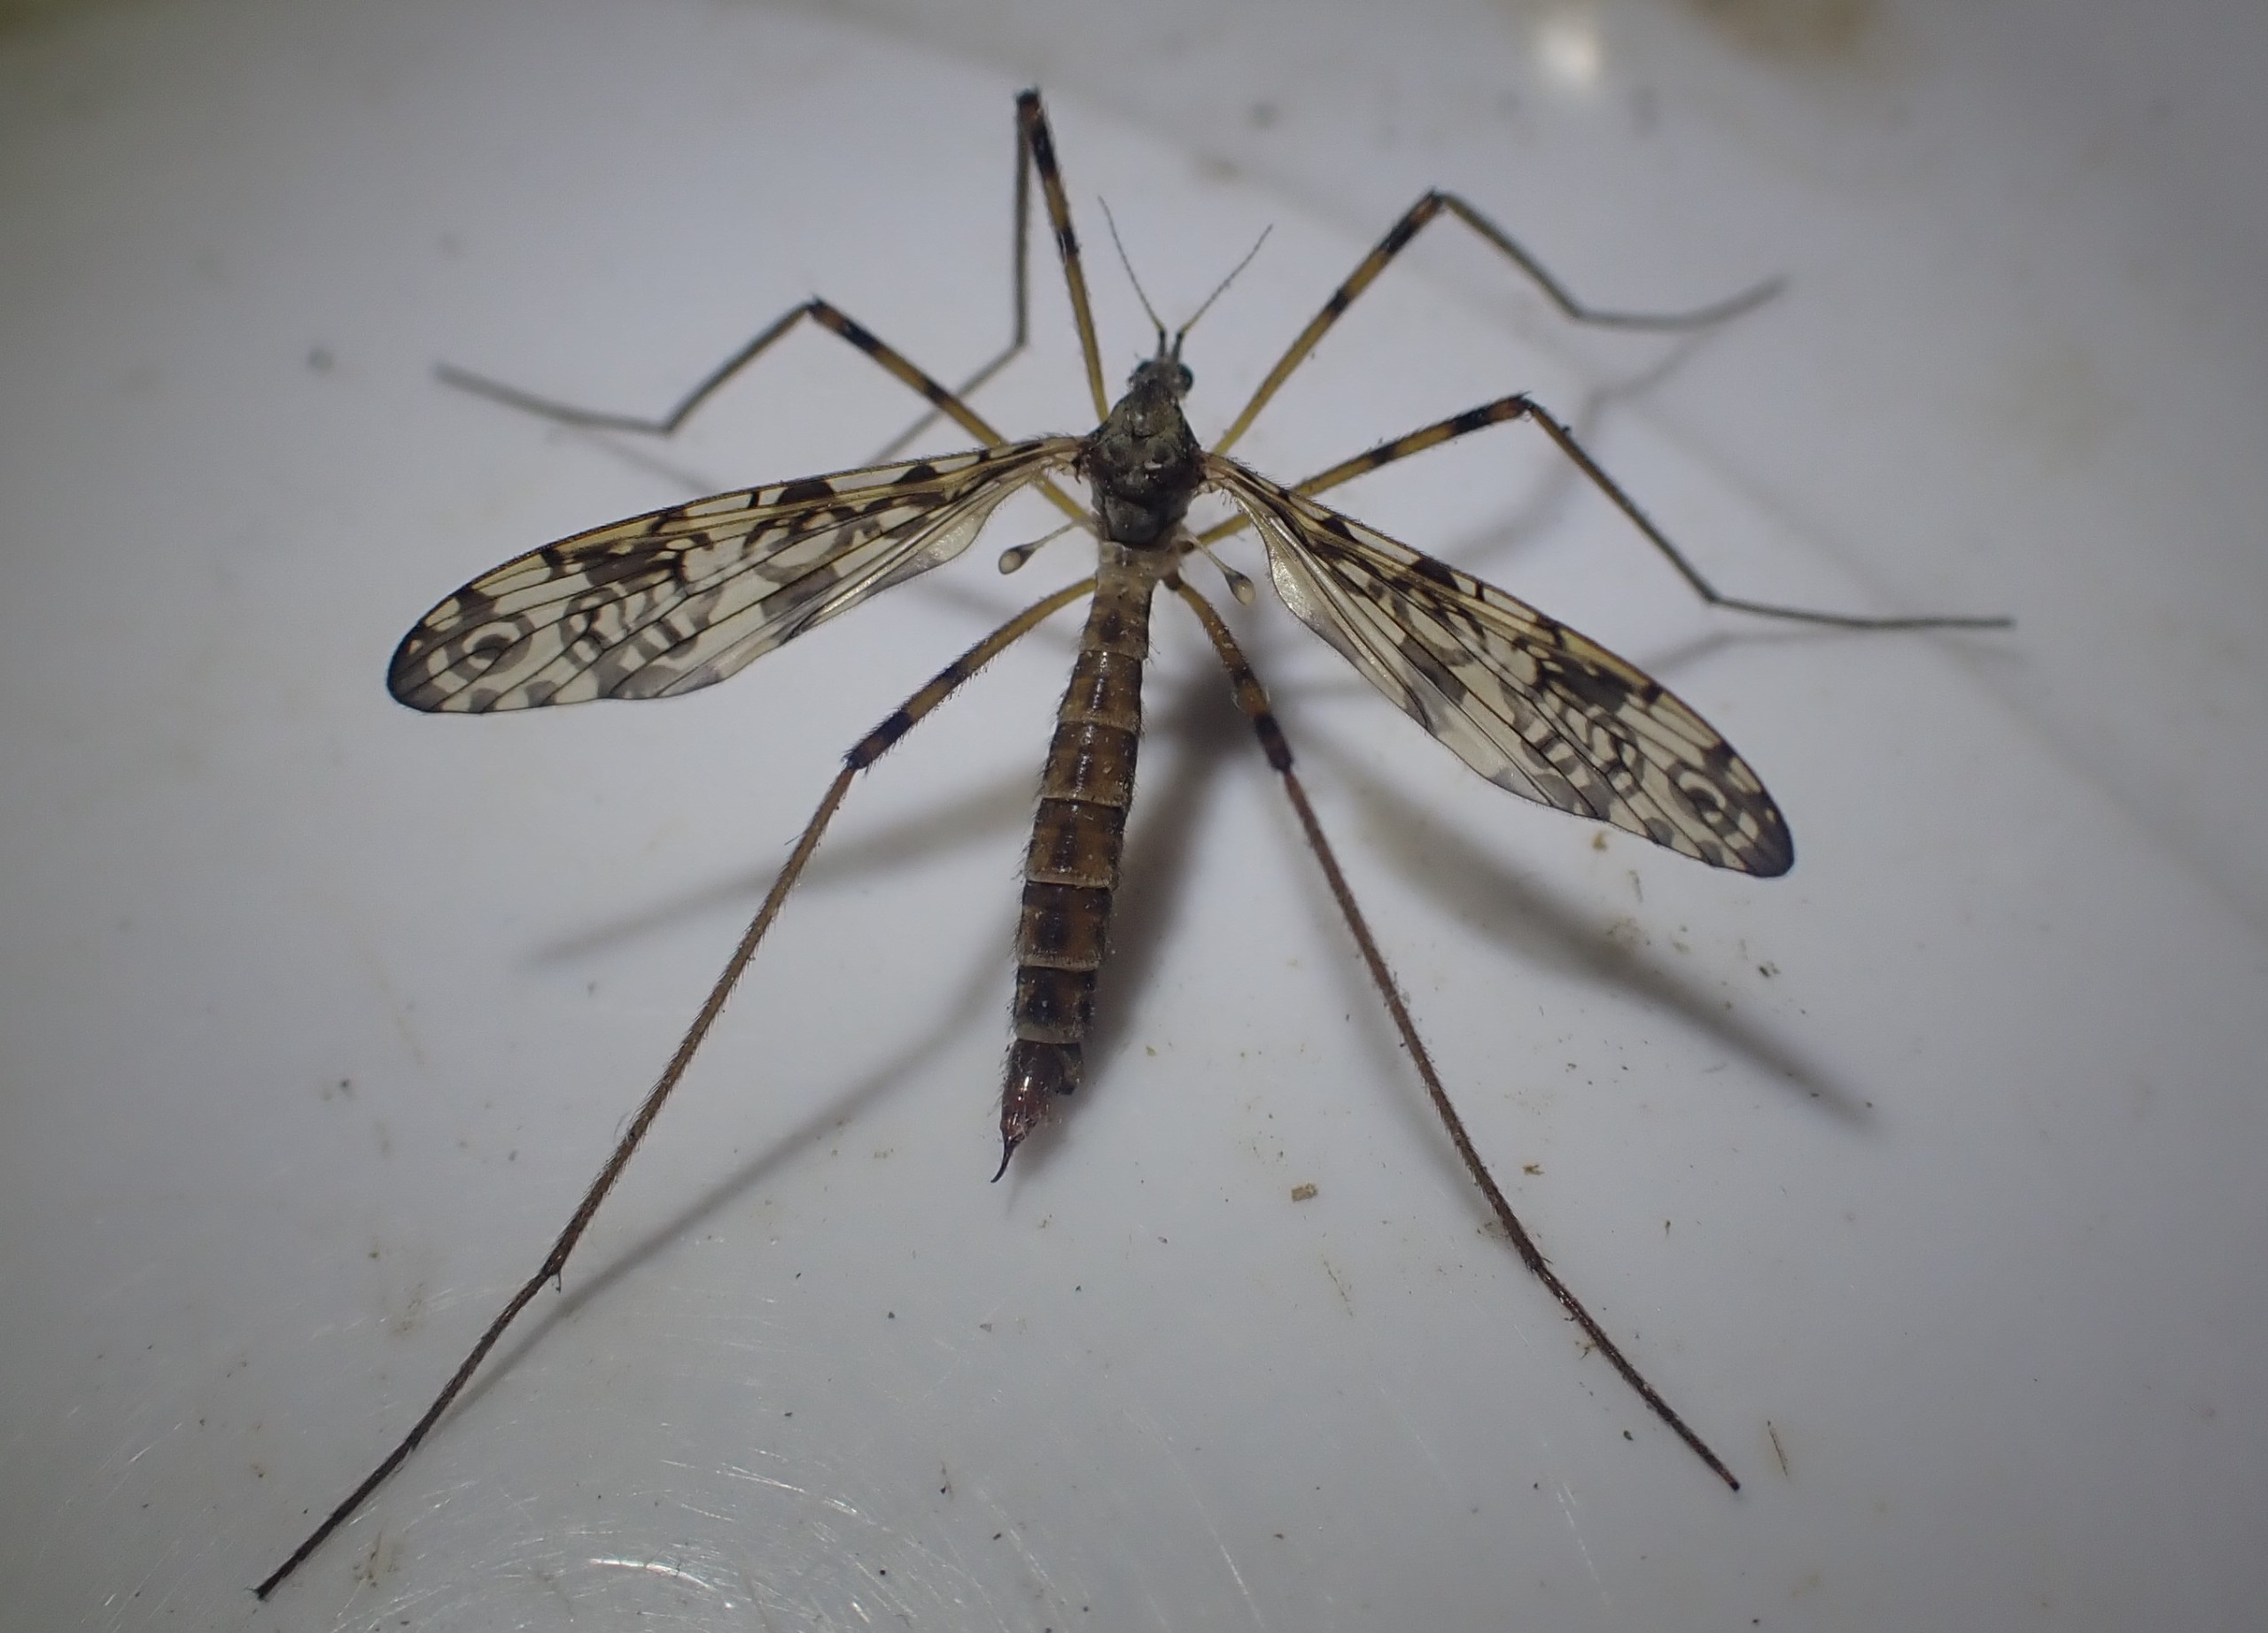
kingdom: Animalia
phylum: Arthropoda
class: Insecta
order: Diptera
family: Limoniidae
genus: Epiphragma
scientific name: Epiphragma ocellare
